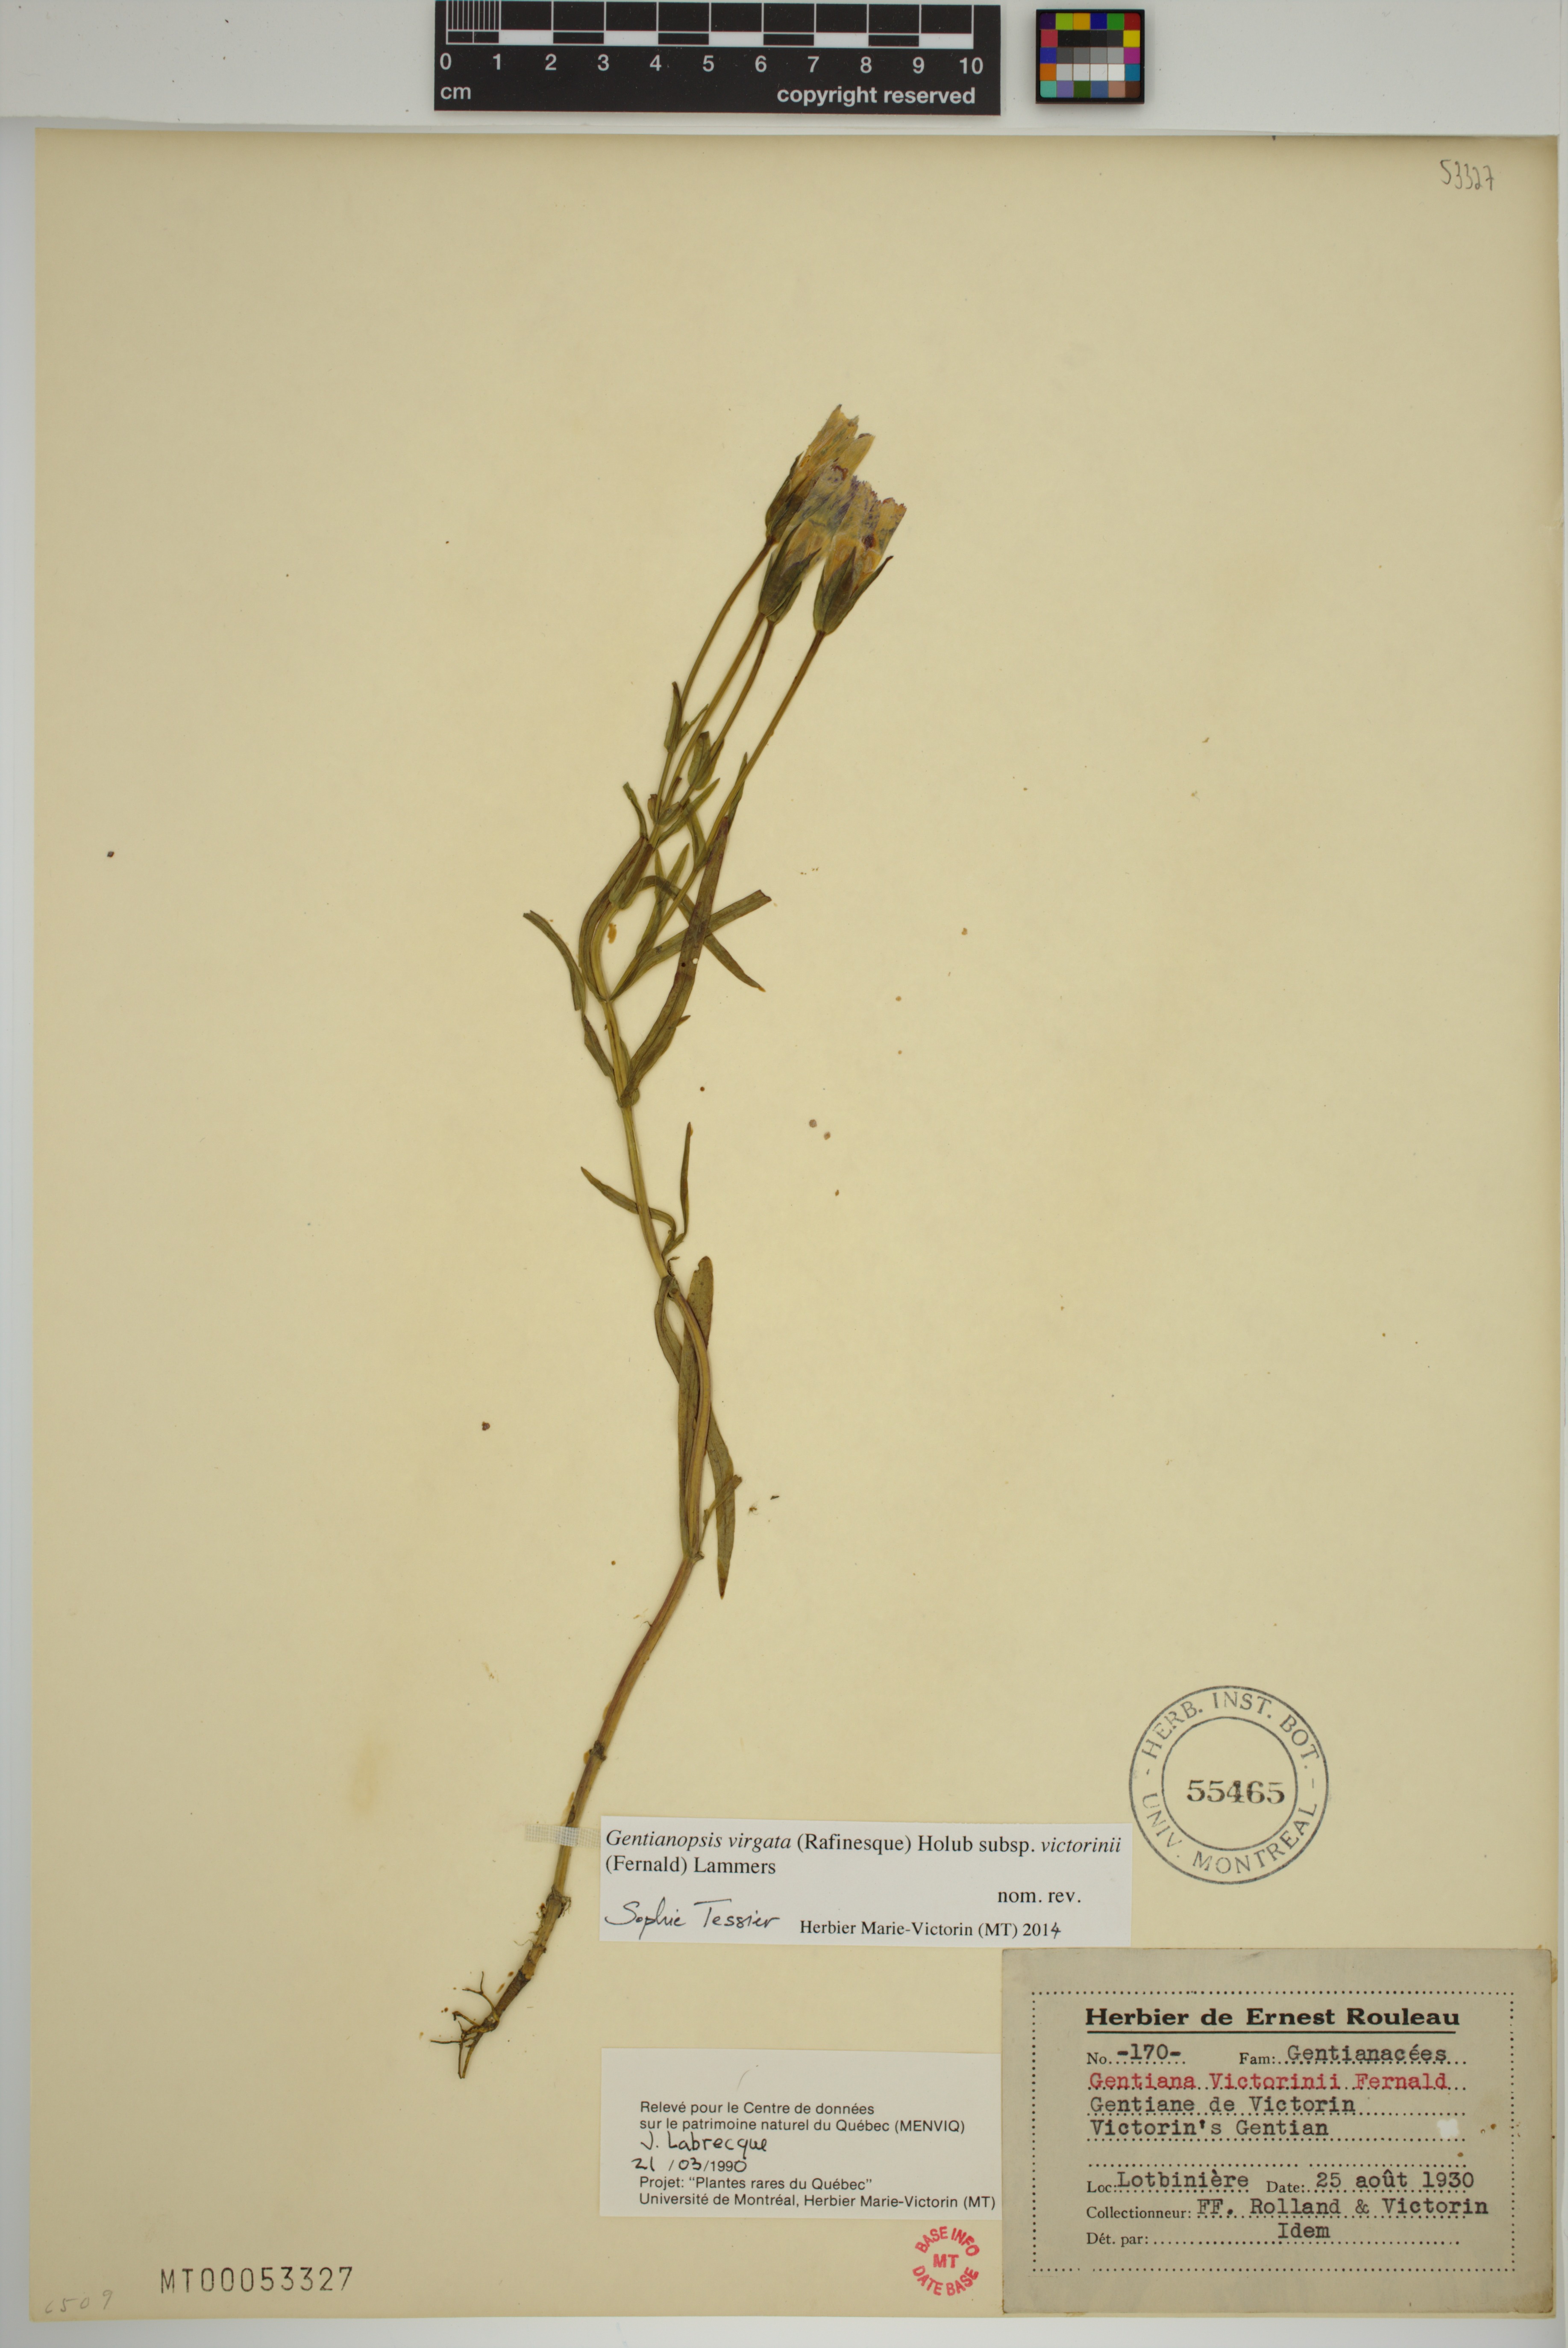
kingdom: Plantae
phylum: Tracheophyta
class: Magnoliopsida
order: Gentianales
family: Gentianaceae
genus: Gentianopsis
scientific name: Gentianopsis victorinii
